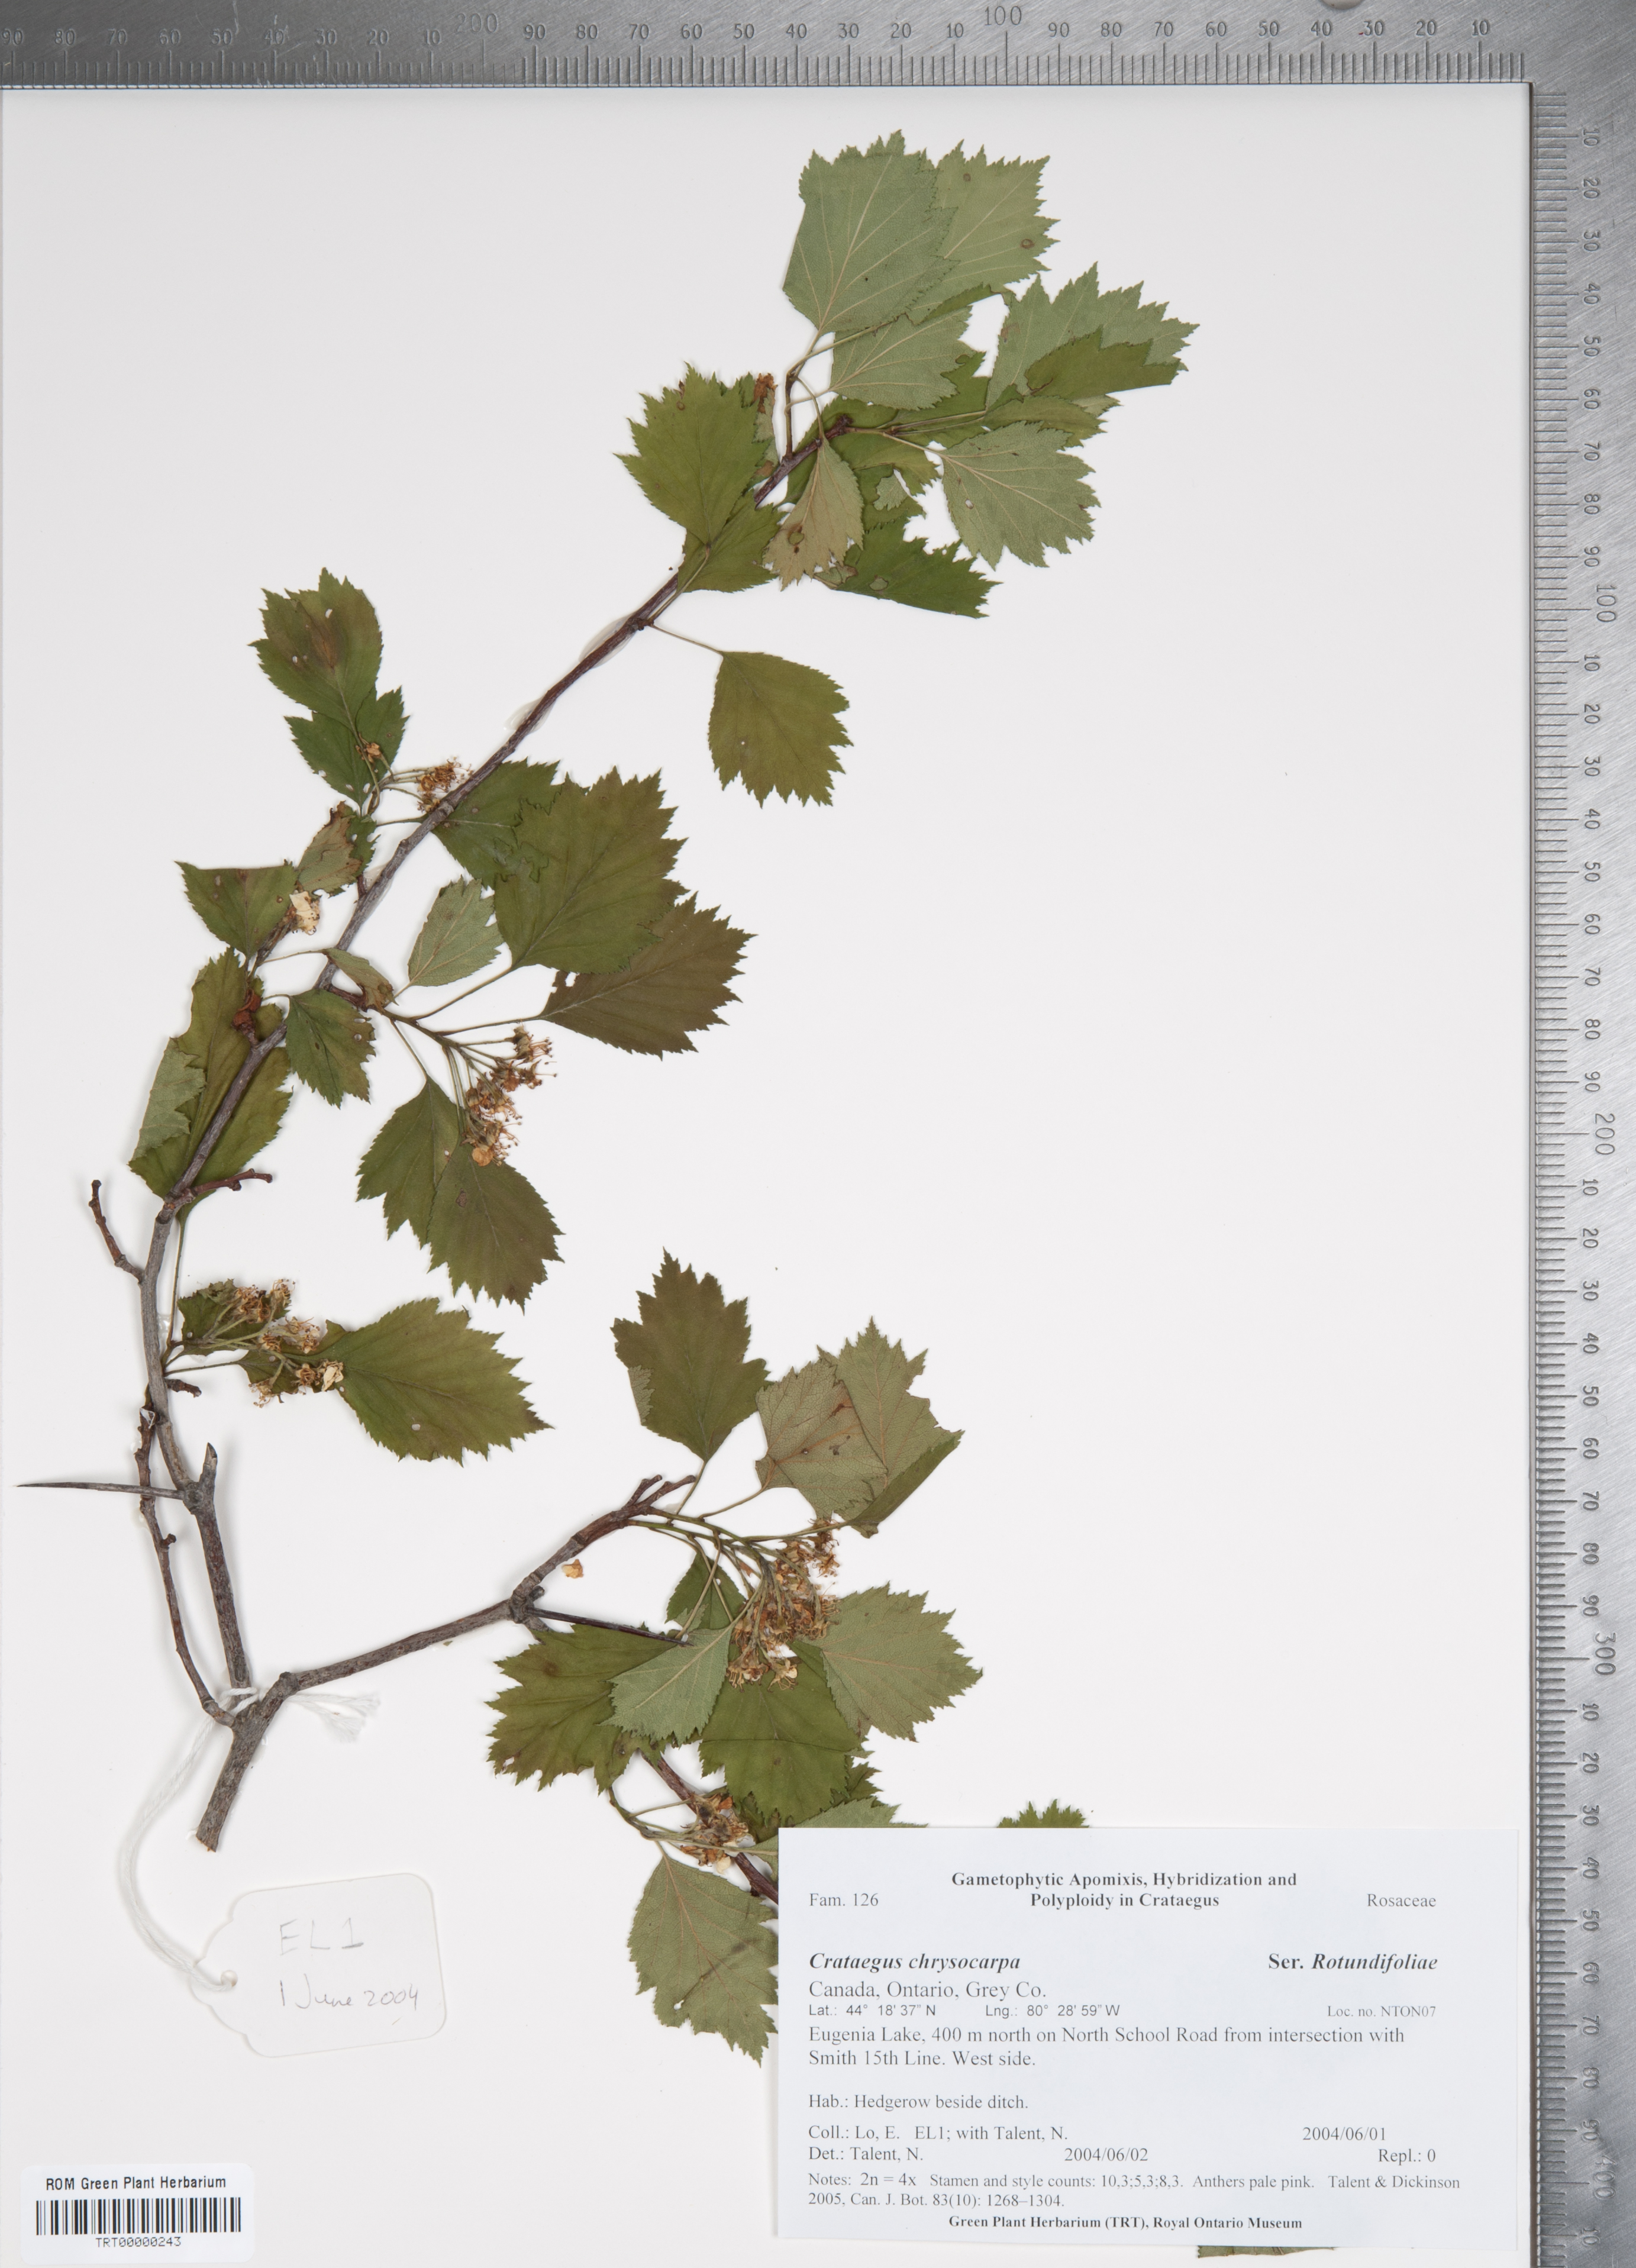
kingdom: Plantae
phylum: Tracheophyta
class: Magnoliopsida
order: Rosales
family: Rosaceae
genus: Crataegus
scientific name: Crataegus chrysocarpa
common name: Fire-berry hawthorn
